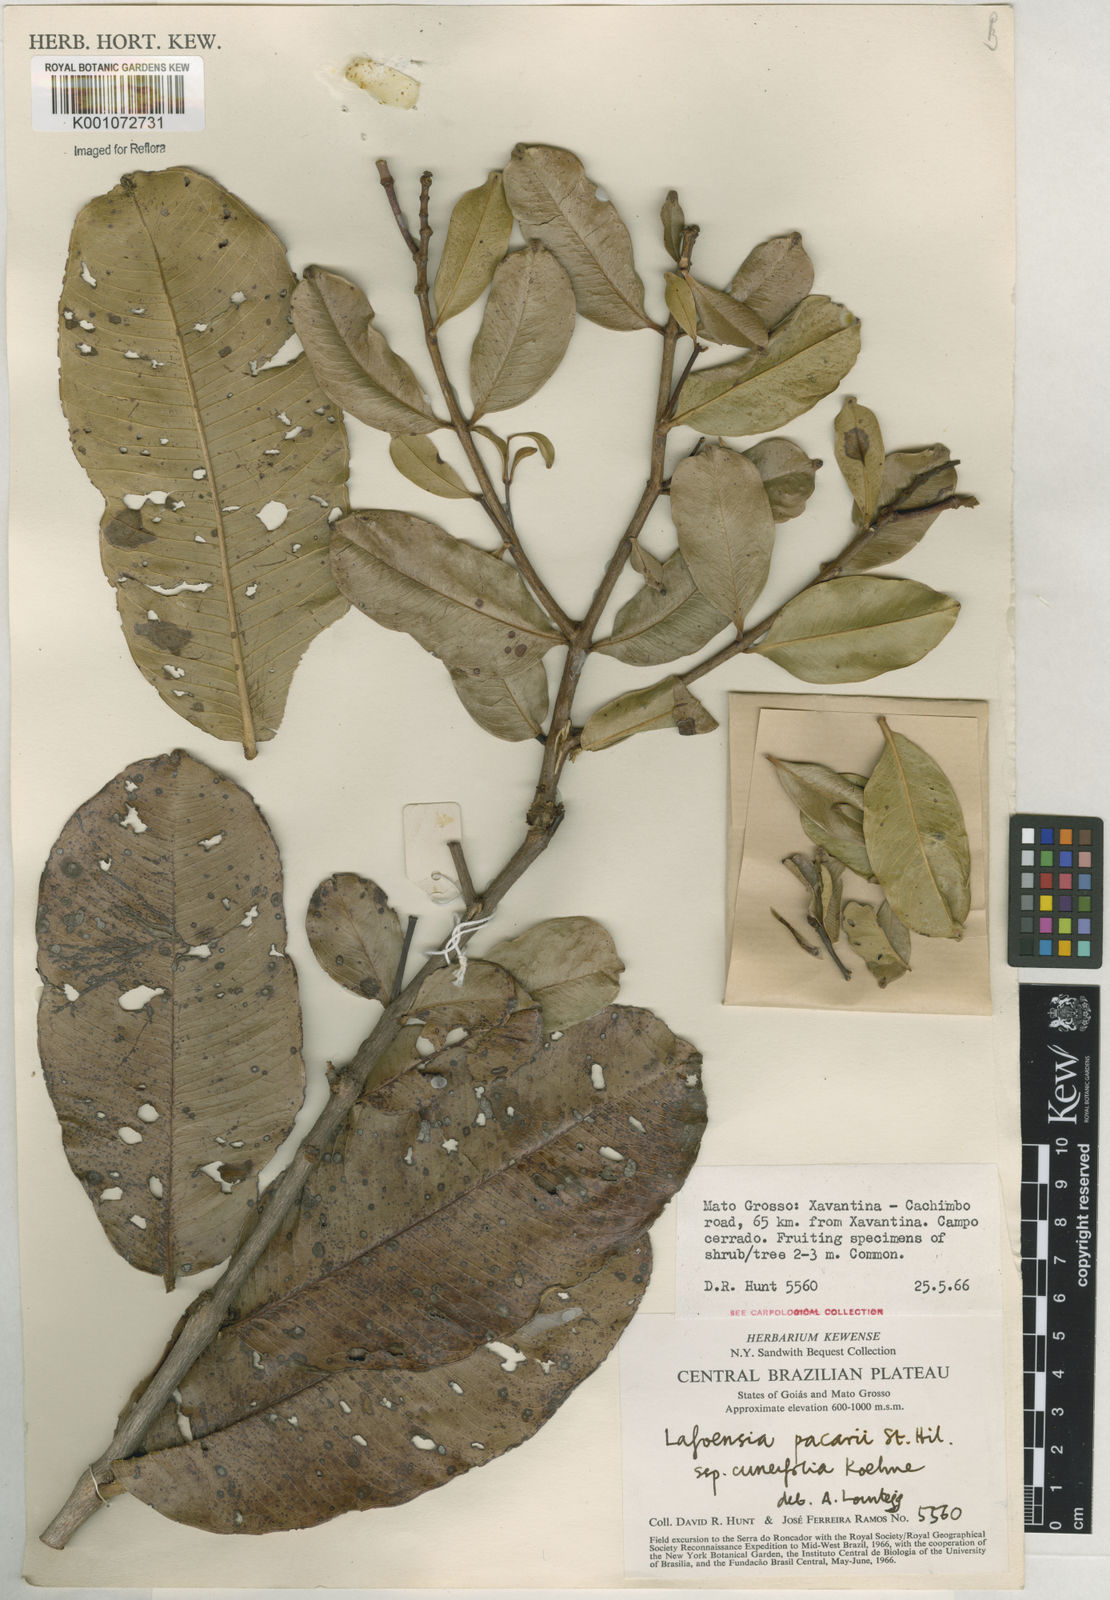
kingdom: Plantae
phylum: Tracheophyta
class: Magnoliopsida
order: Myrtales
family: Lythraceae
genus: Lafoensia
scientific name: Lafoensia pacari
